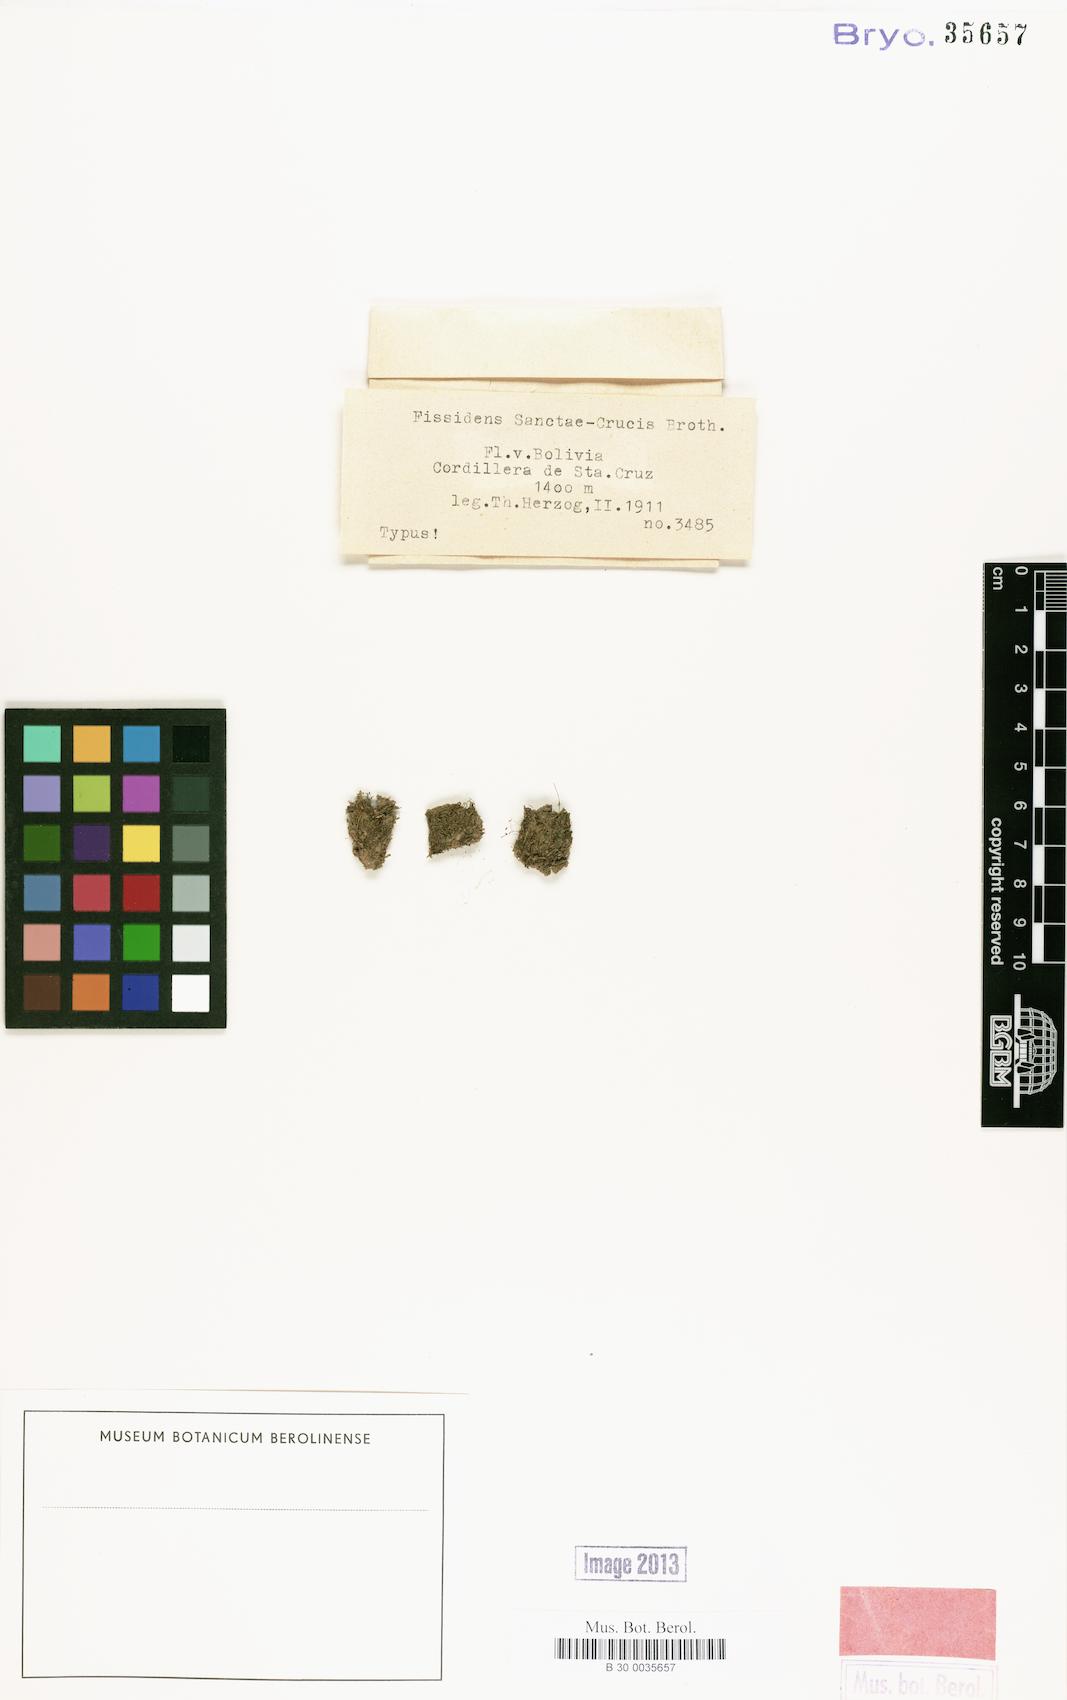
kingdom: Plantae
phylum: Bryophyta
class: Bryopsida
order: Dicranales
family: Fissidentaceae
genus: Fissidens
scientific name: Fissidens crispus
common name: Herzog's pocket-moss
